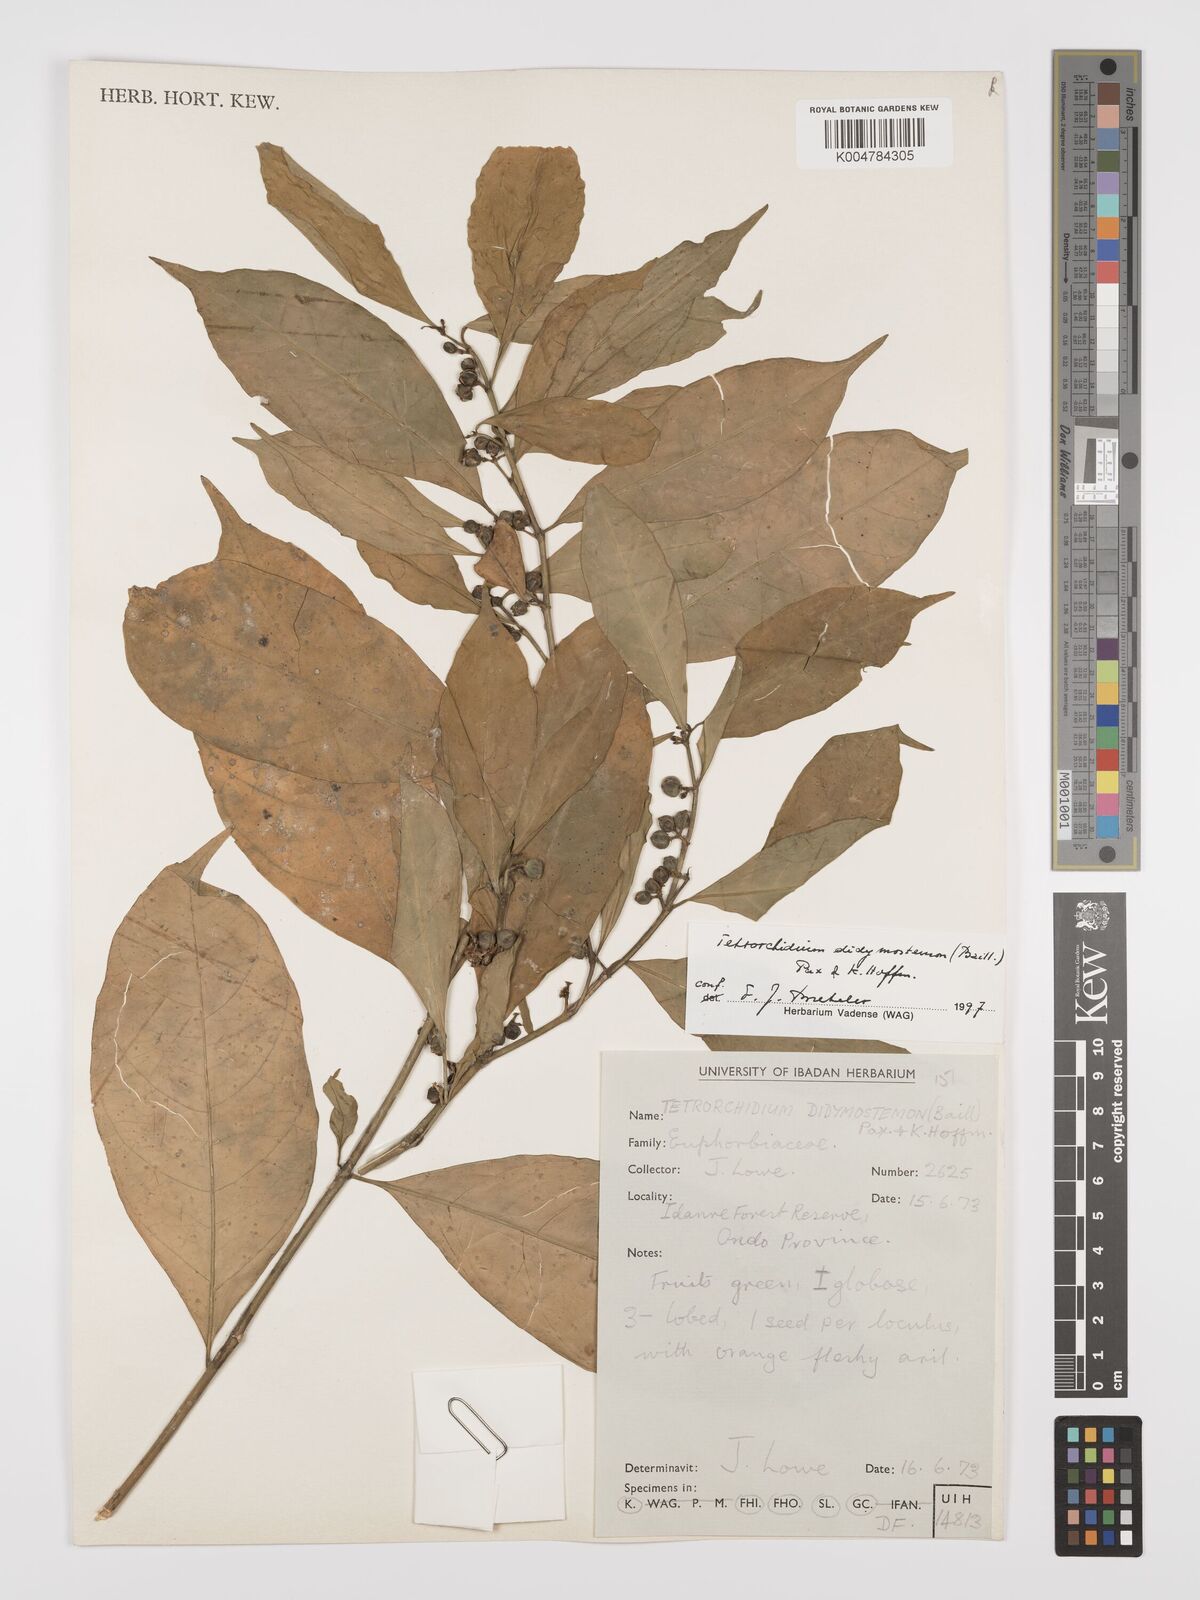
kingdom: Plantae
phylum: Tracheophyta
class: Magnoliopsida
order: Malpighiales
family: Euphorbiaceae
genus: Tetrorchidium
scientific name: Tetrorchidium didymostemon
